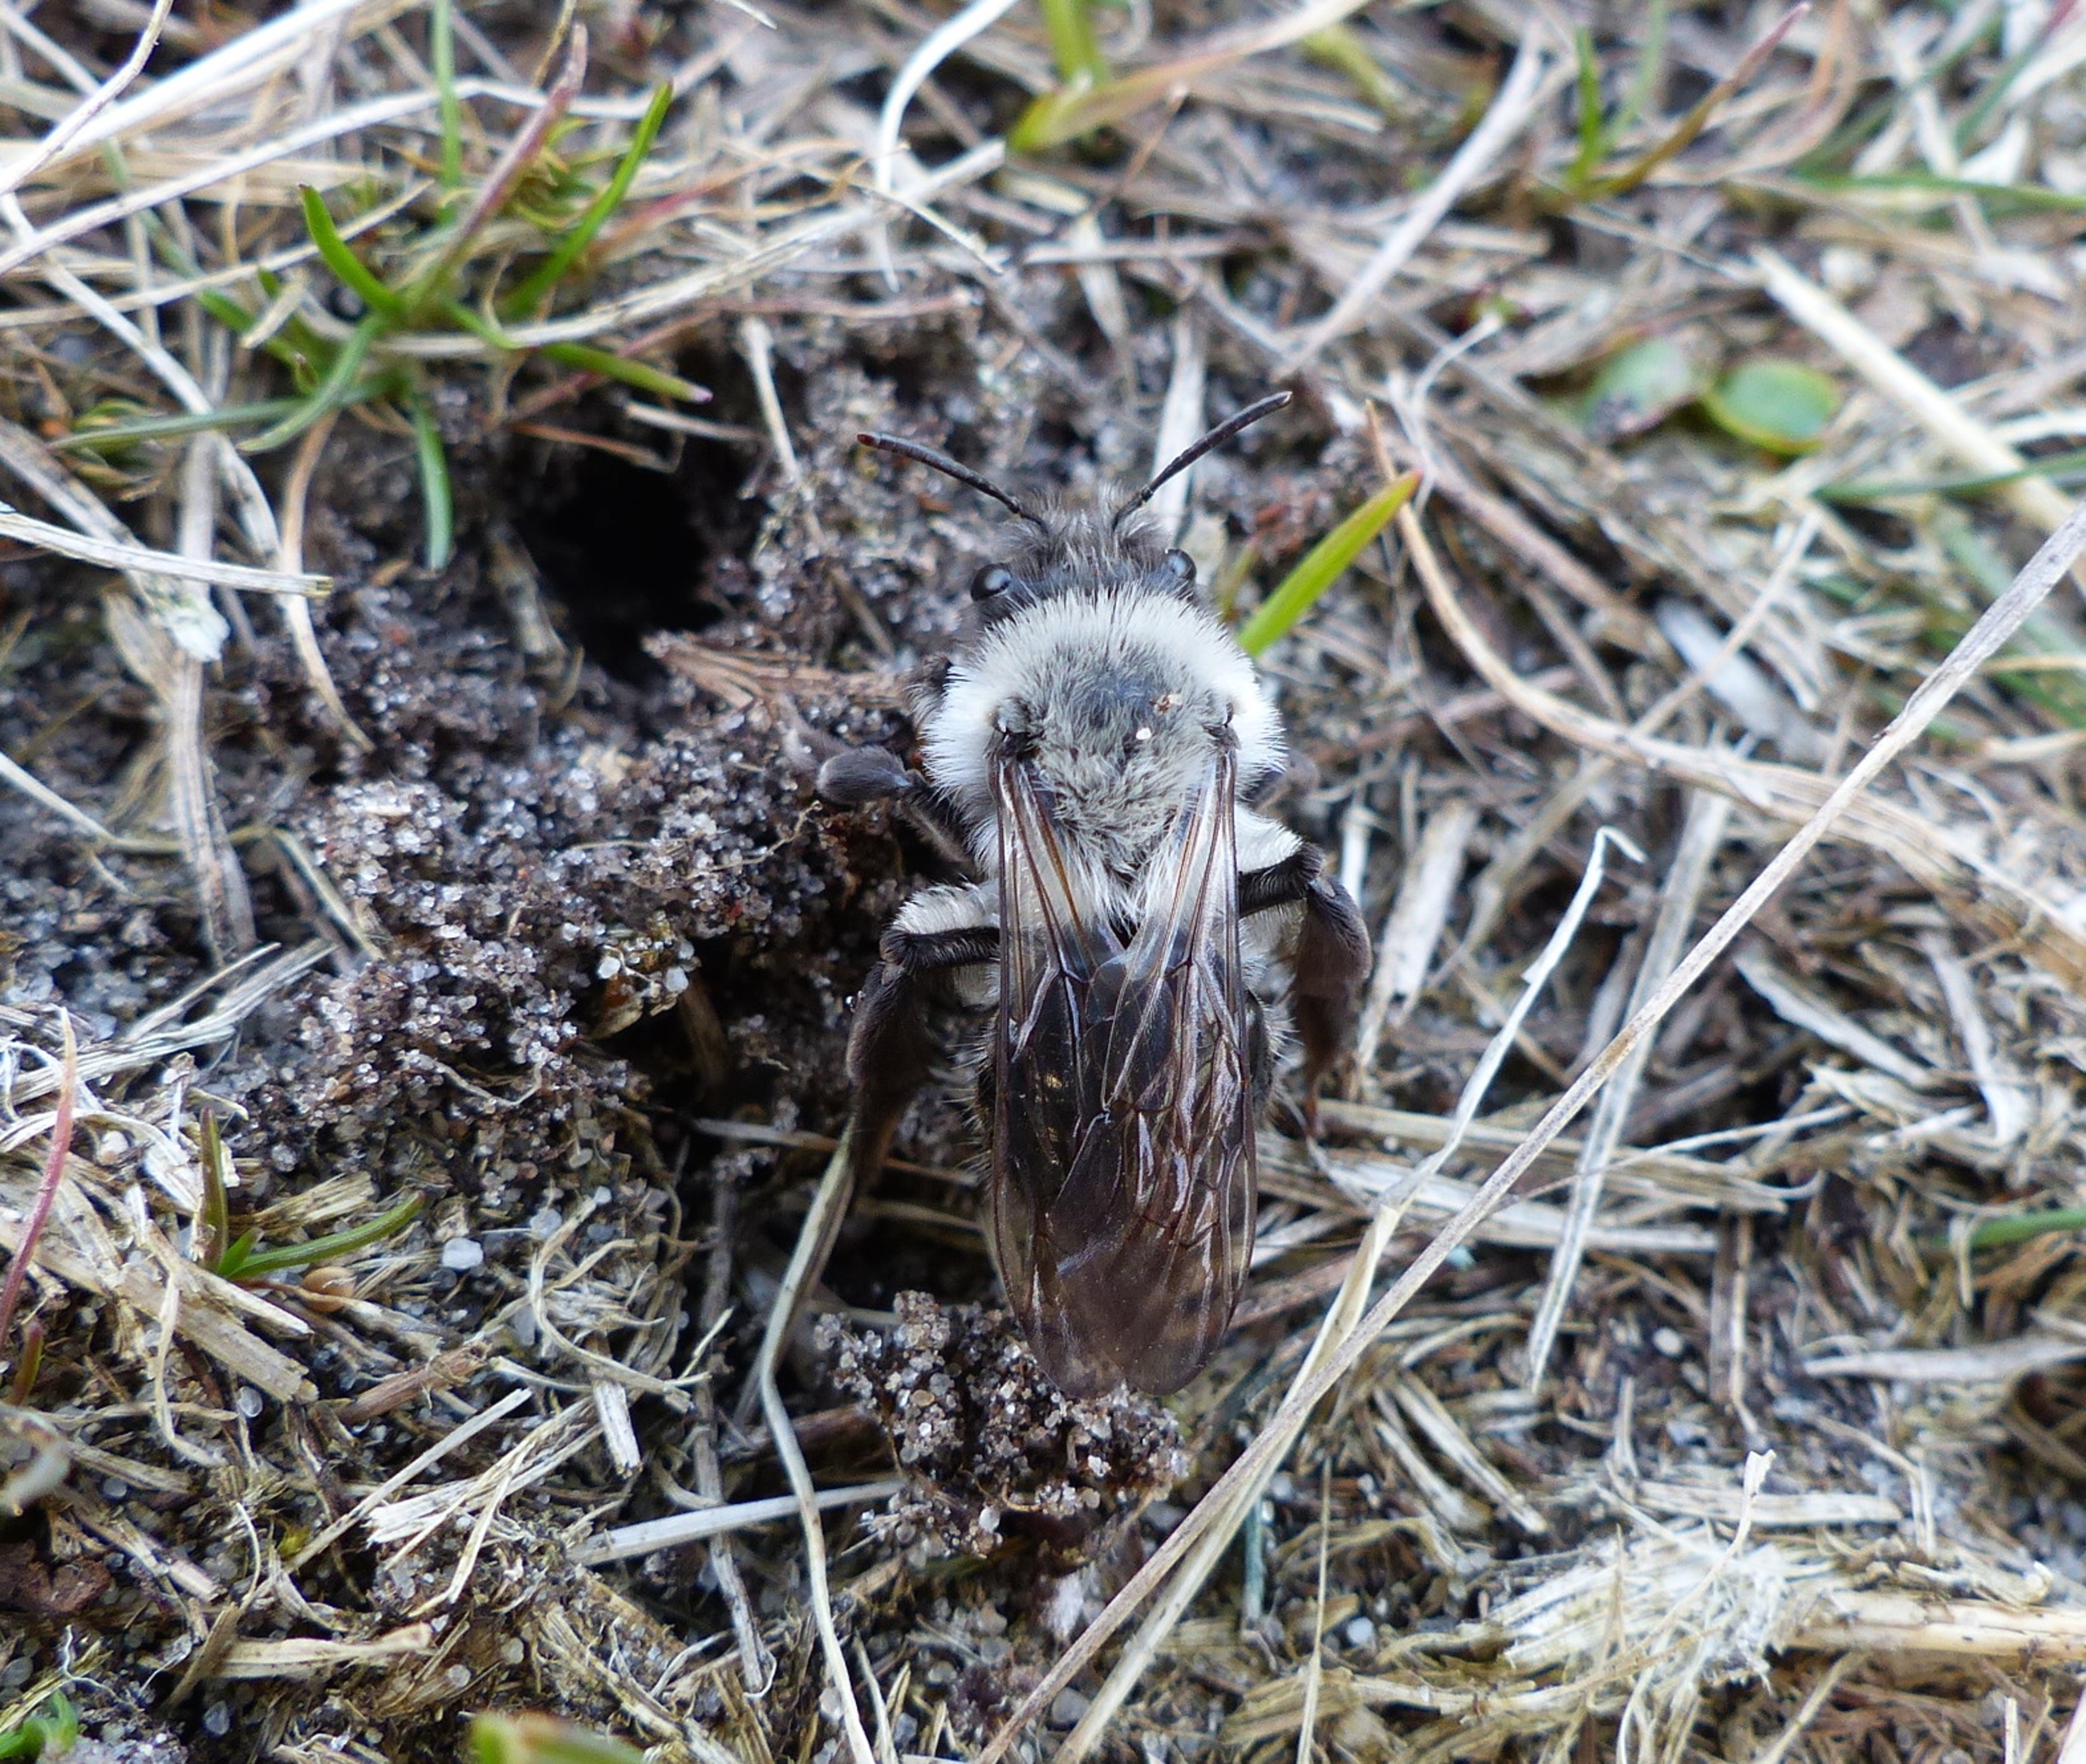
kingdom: Animalia
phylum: Arthropoda
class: Insecta
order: Hymenoptera
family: Andrenidae
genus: Andrena
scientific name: Andrena vaga
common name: Hvidbrystet jordbi
